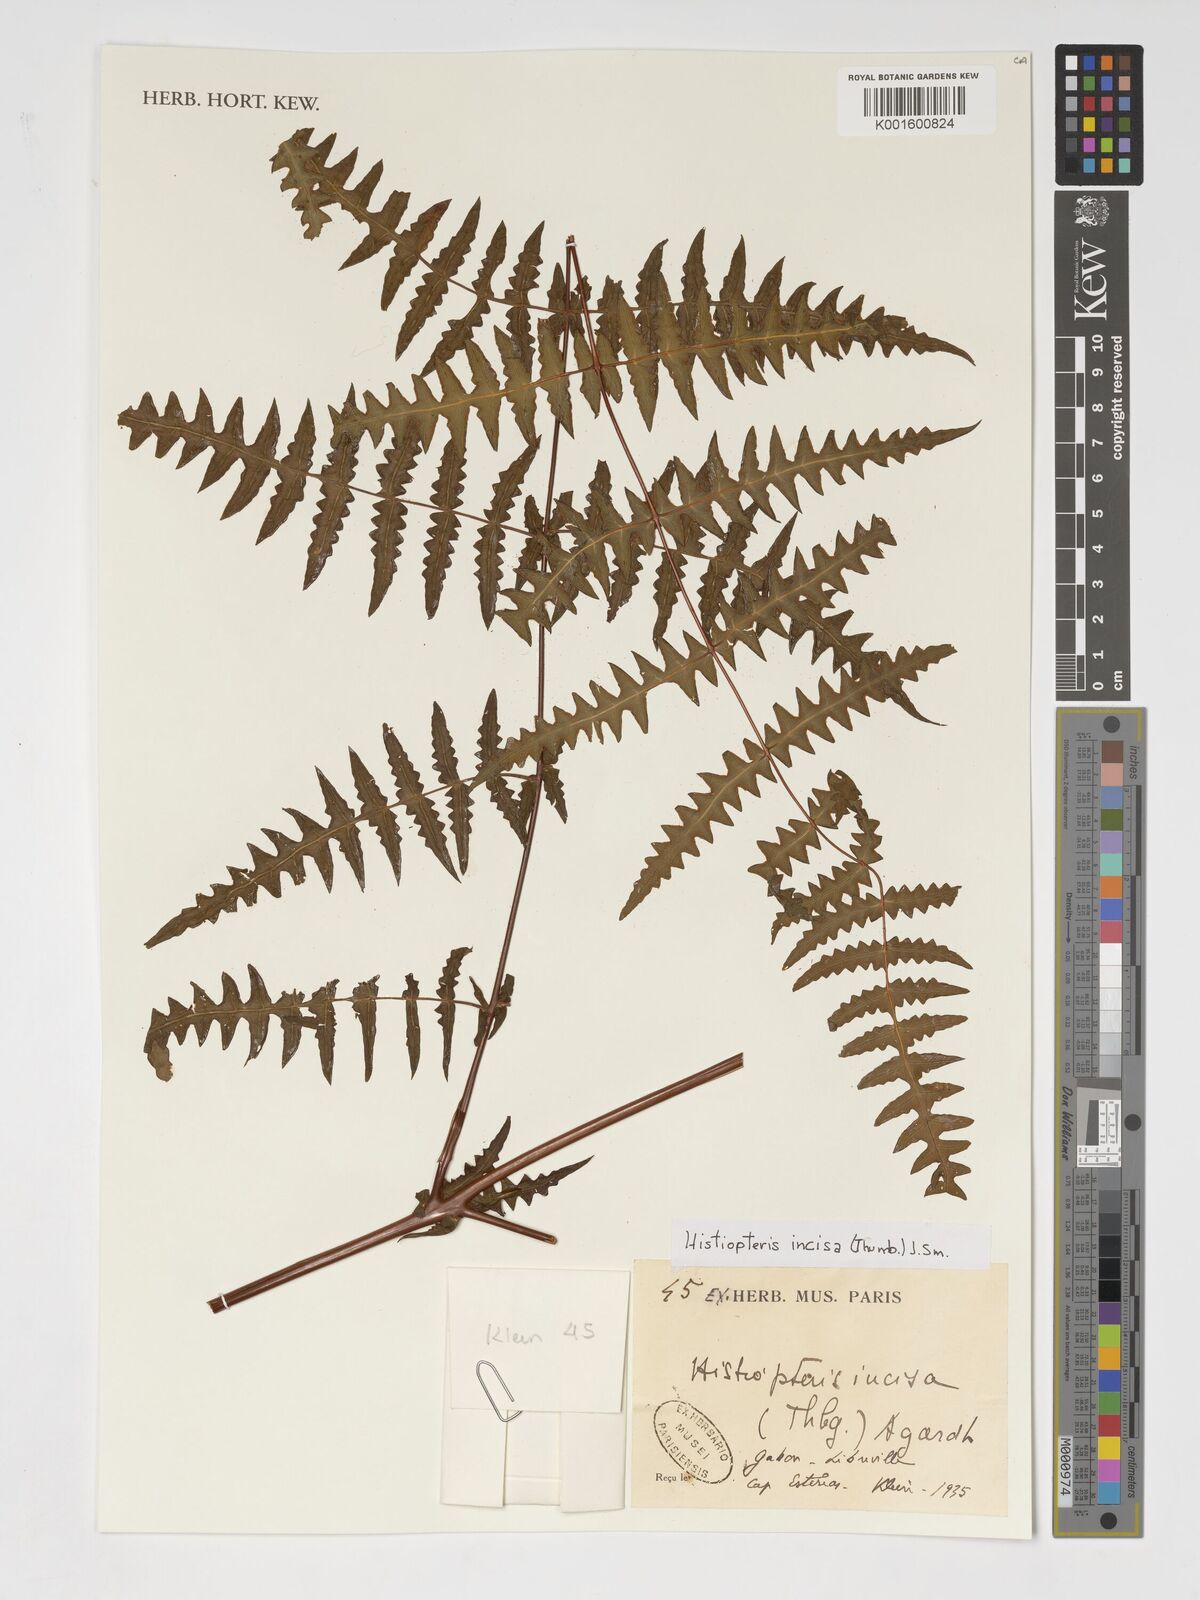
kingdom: Plantae
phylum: Tracheophyta
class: Polypodiopsida
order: Polypodiales
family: Dennstaedtiaceae
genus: Histiopteris
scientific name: Histiopteris incisa
